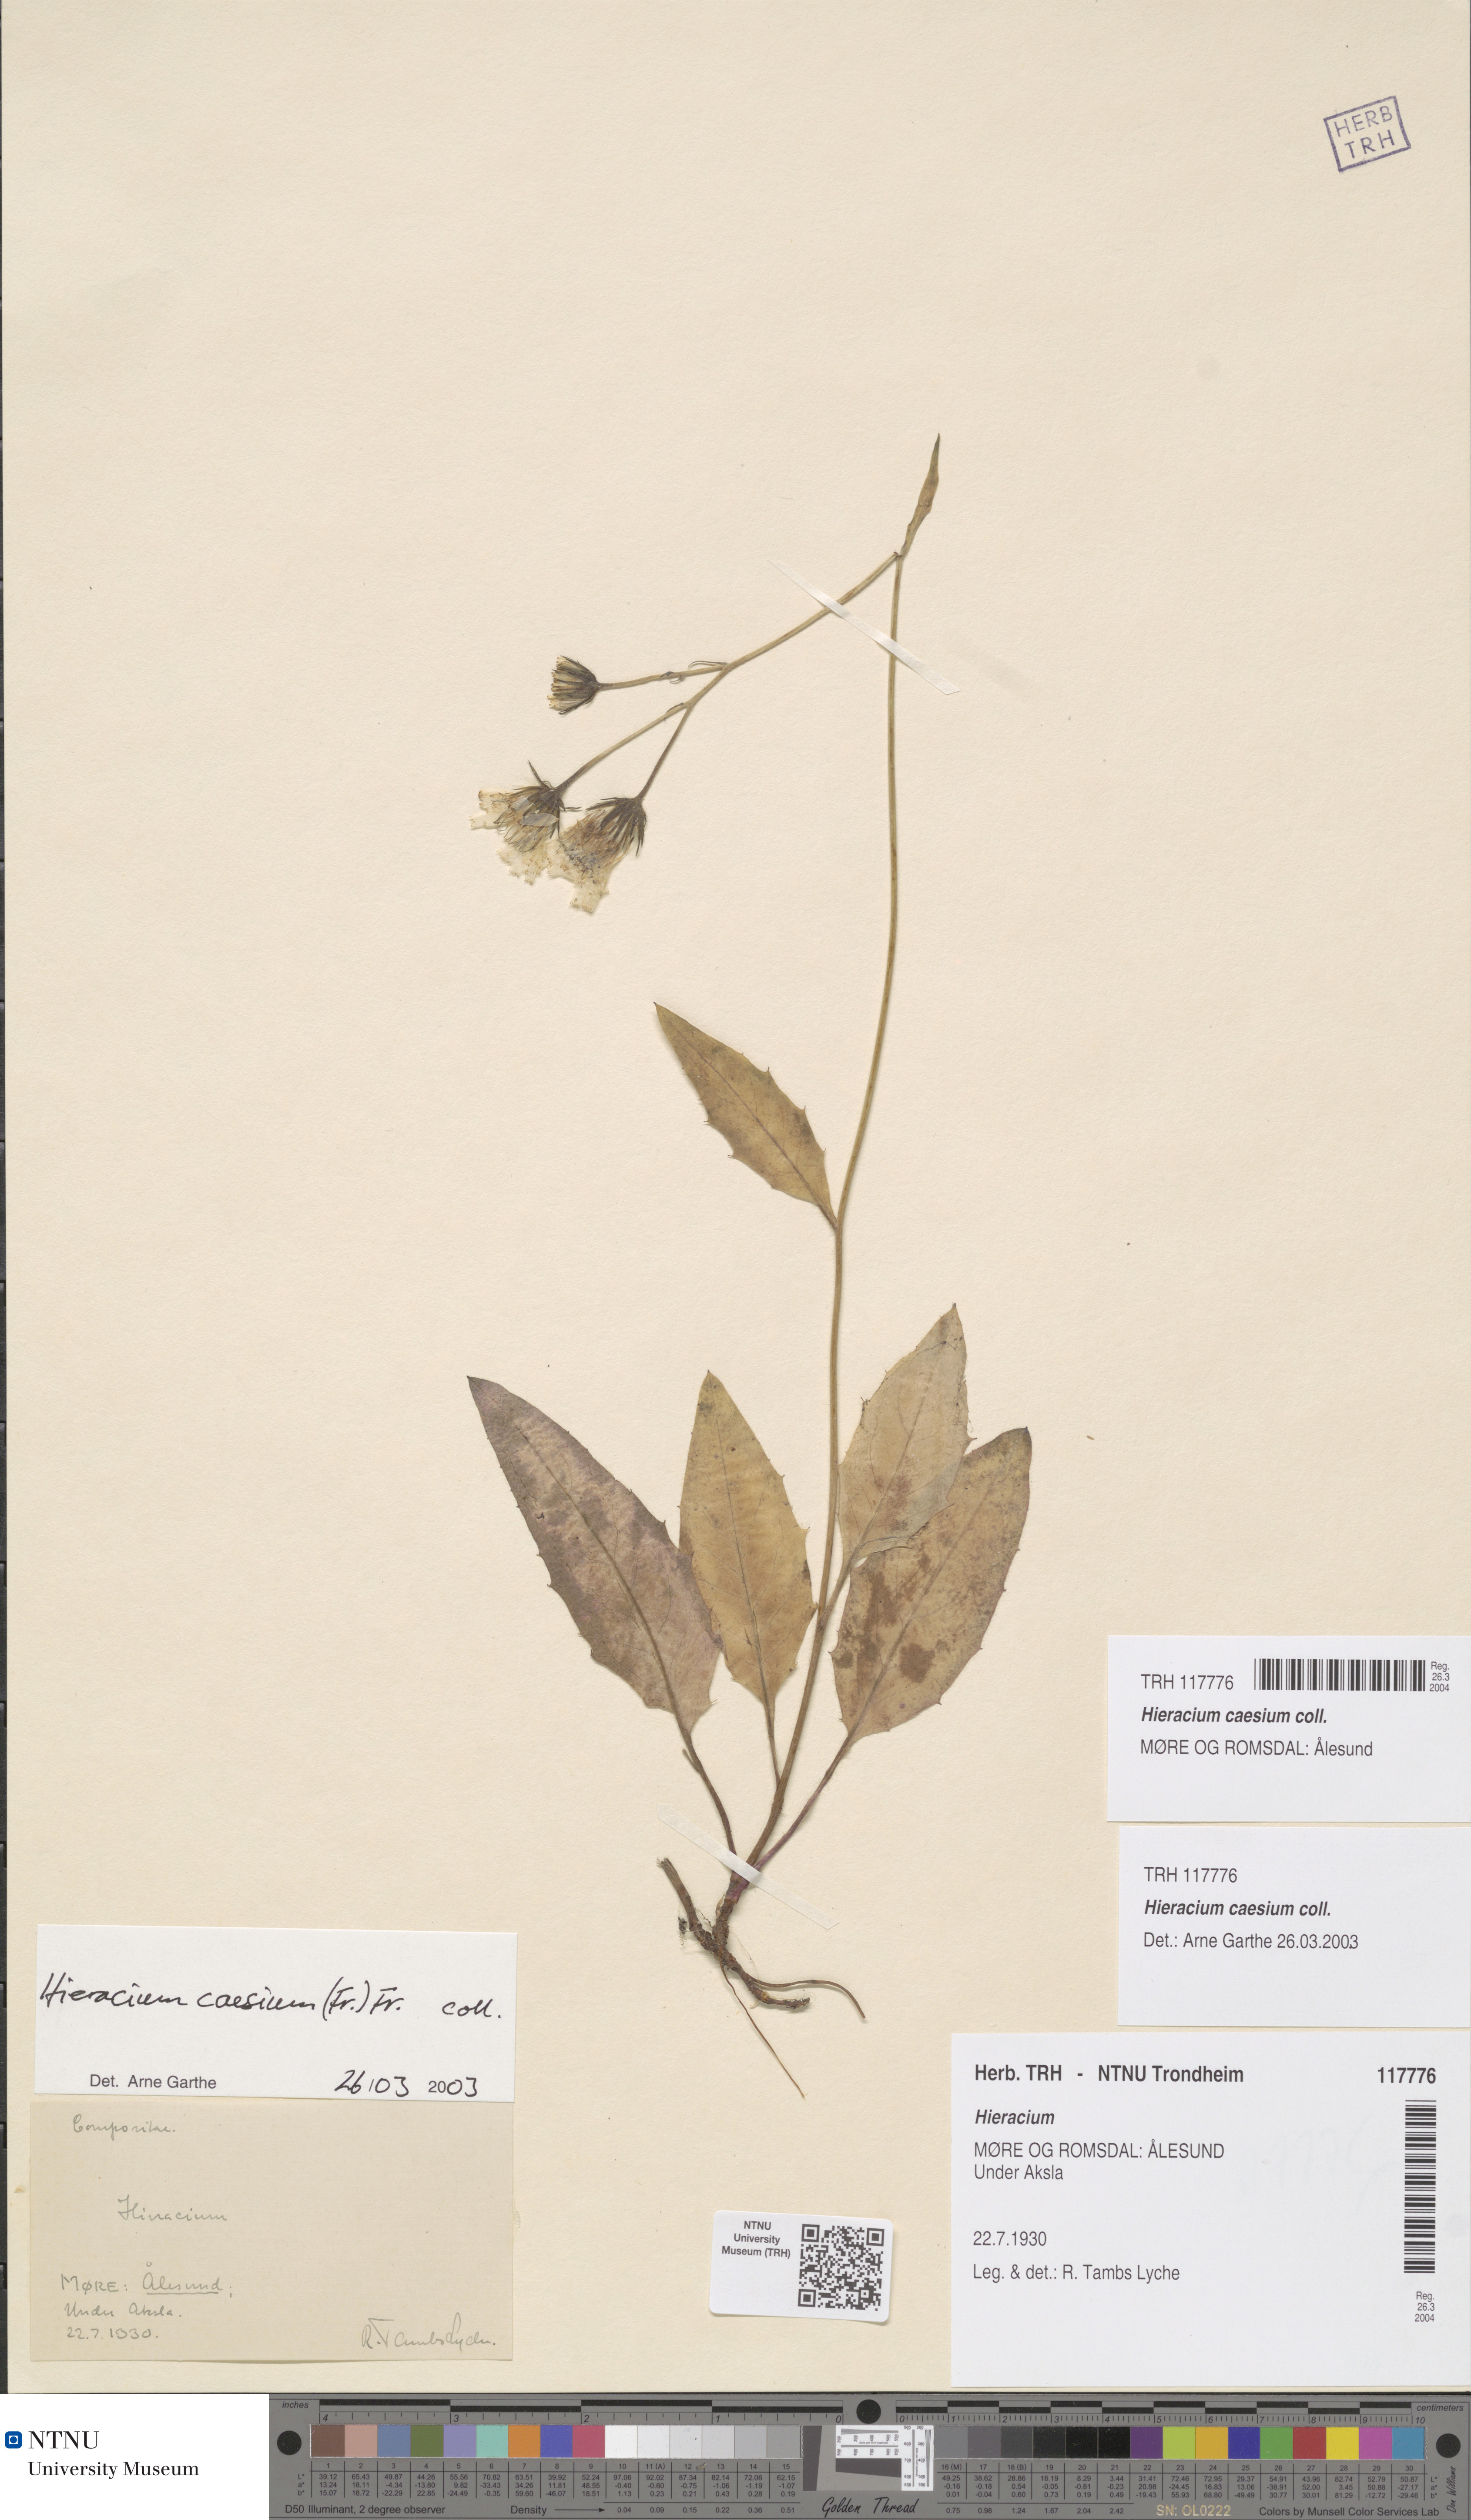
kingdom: Plantae
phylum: Tracheophyta
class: Magnoliopsida
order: Asterales
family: Asteraceae
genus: Hieracium
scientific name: Hieracium caesium
